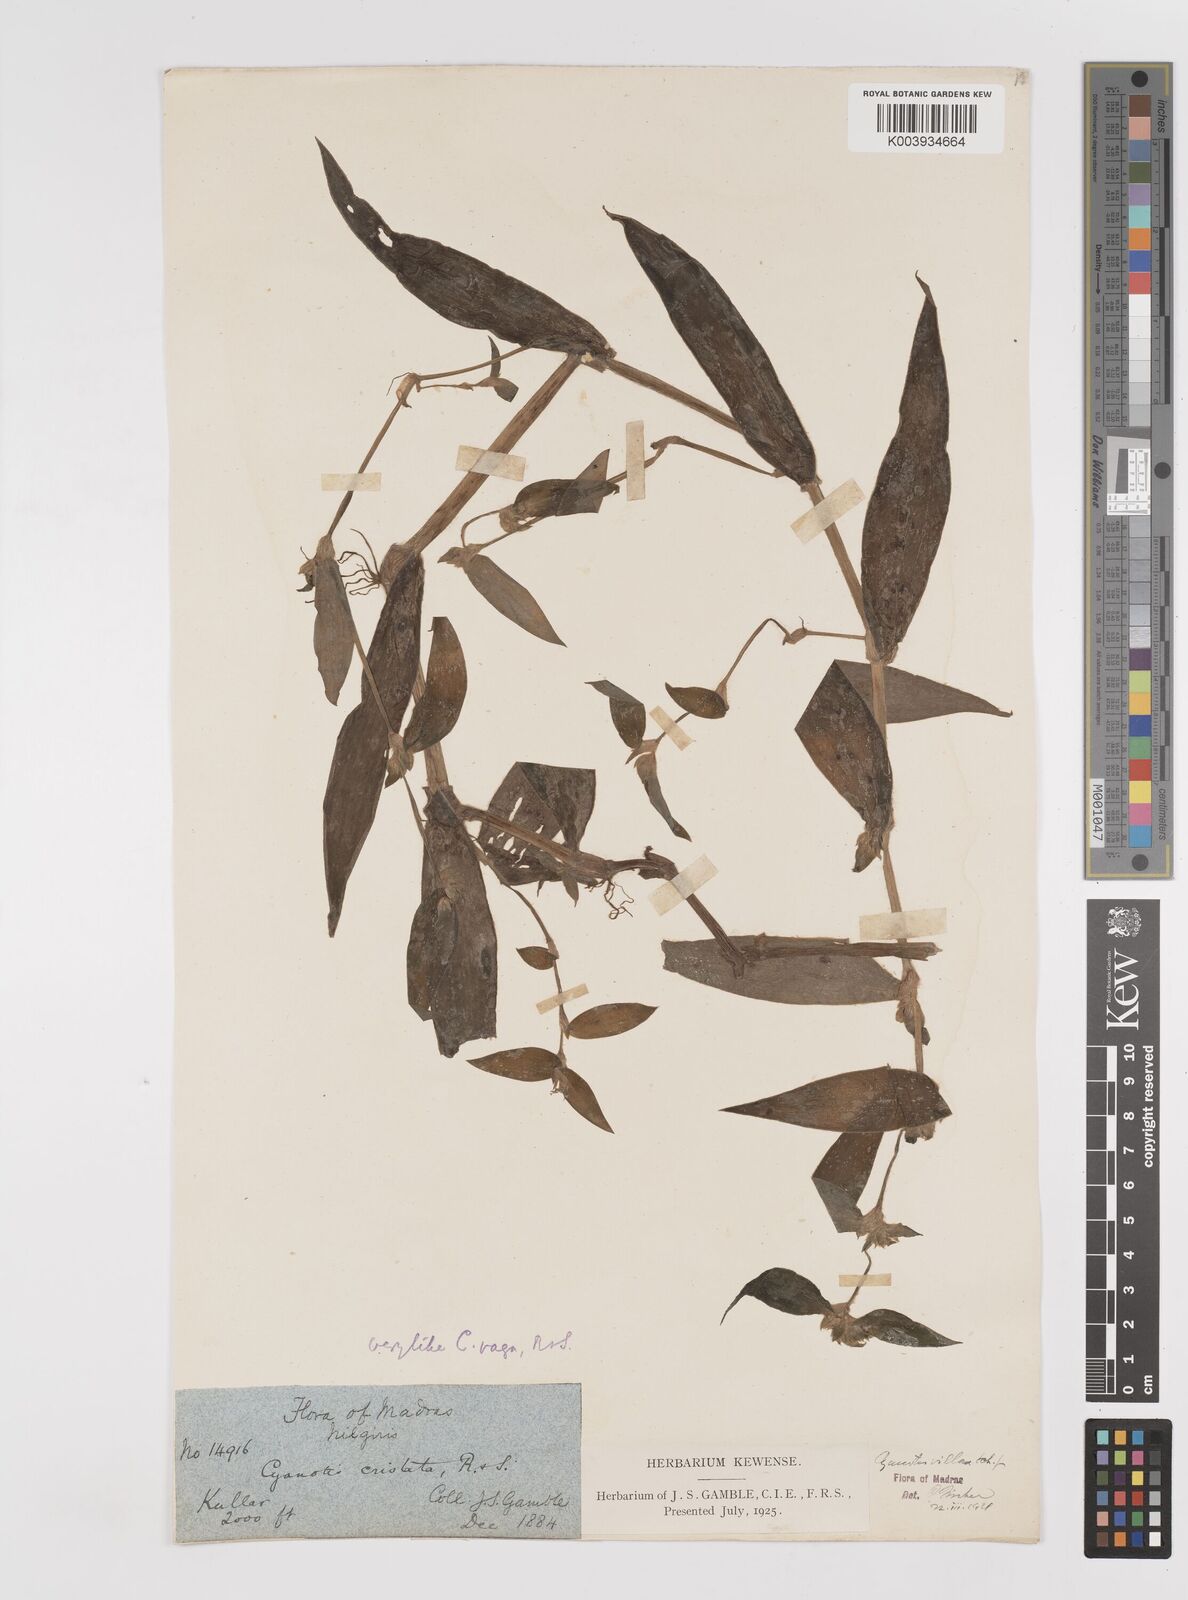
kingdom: Plantae
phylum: Tracheophyta
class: Liliopsida
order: Commelinales
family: Commelinaceae
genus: Cyanotis
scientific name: Cyanotis villosa
